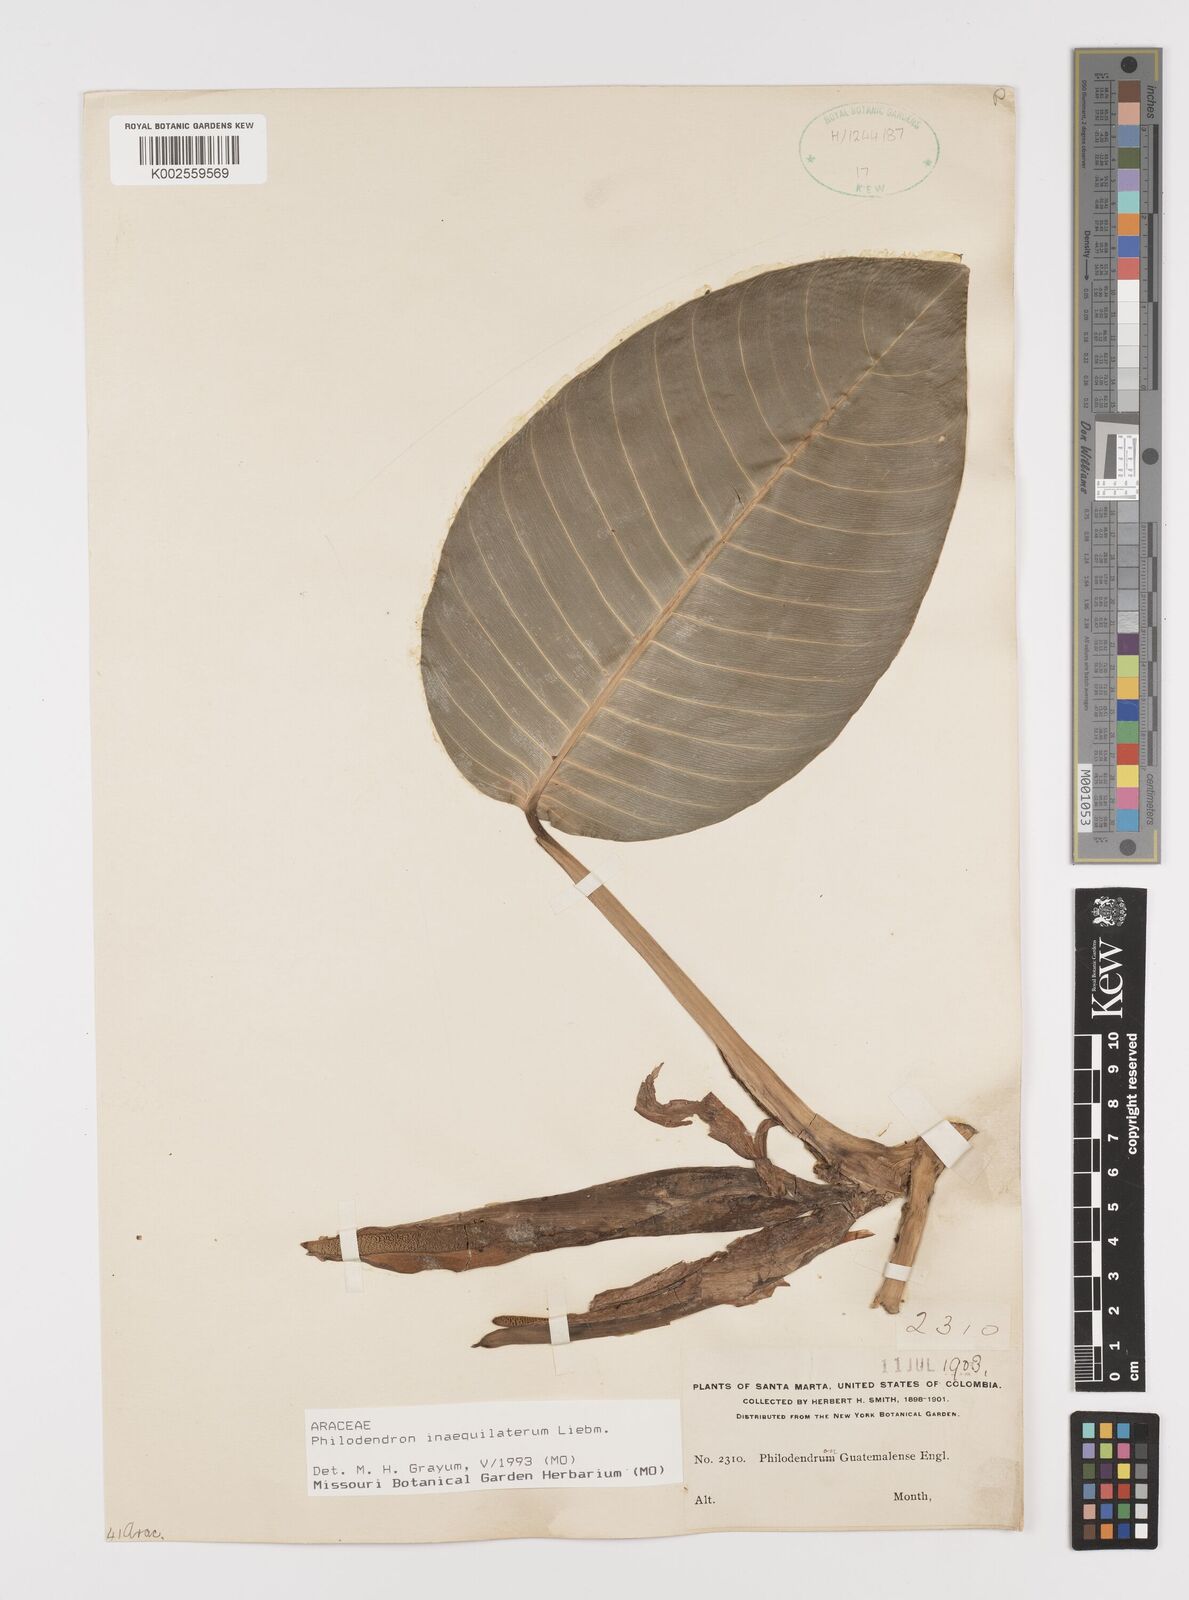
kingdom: Plantae
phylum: Tracheophyta
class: Liliopsida
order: Alismatales
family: Araceae
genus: Philodendron
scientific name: Philodendron inaequilaterum
